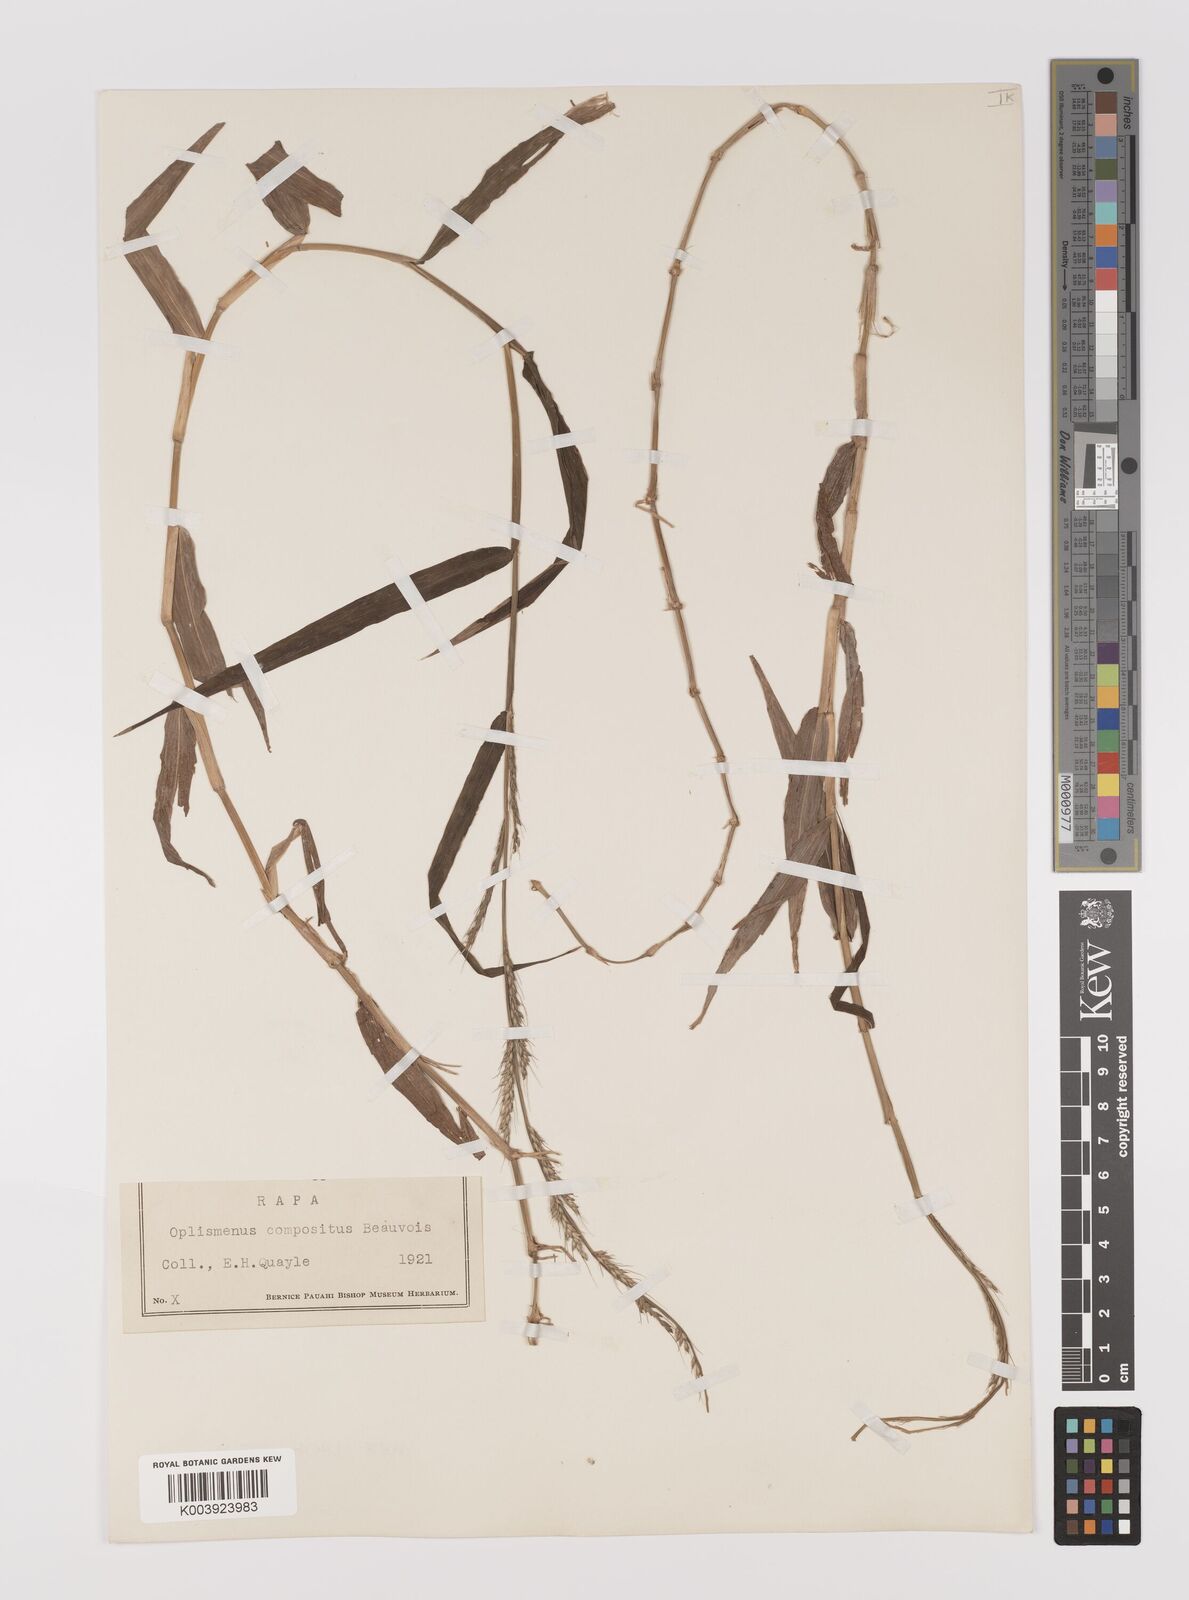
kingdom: Plantae
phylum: Tracheophyta
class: Liliopsida
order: Poales
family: Poaceae
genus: Oplismenus
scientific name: Oplismenus compositus
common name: Running mountain grass
